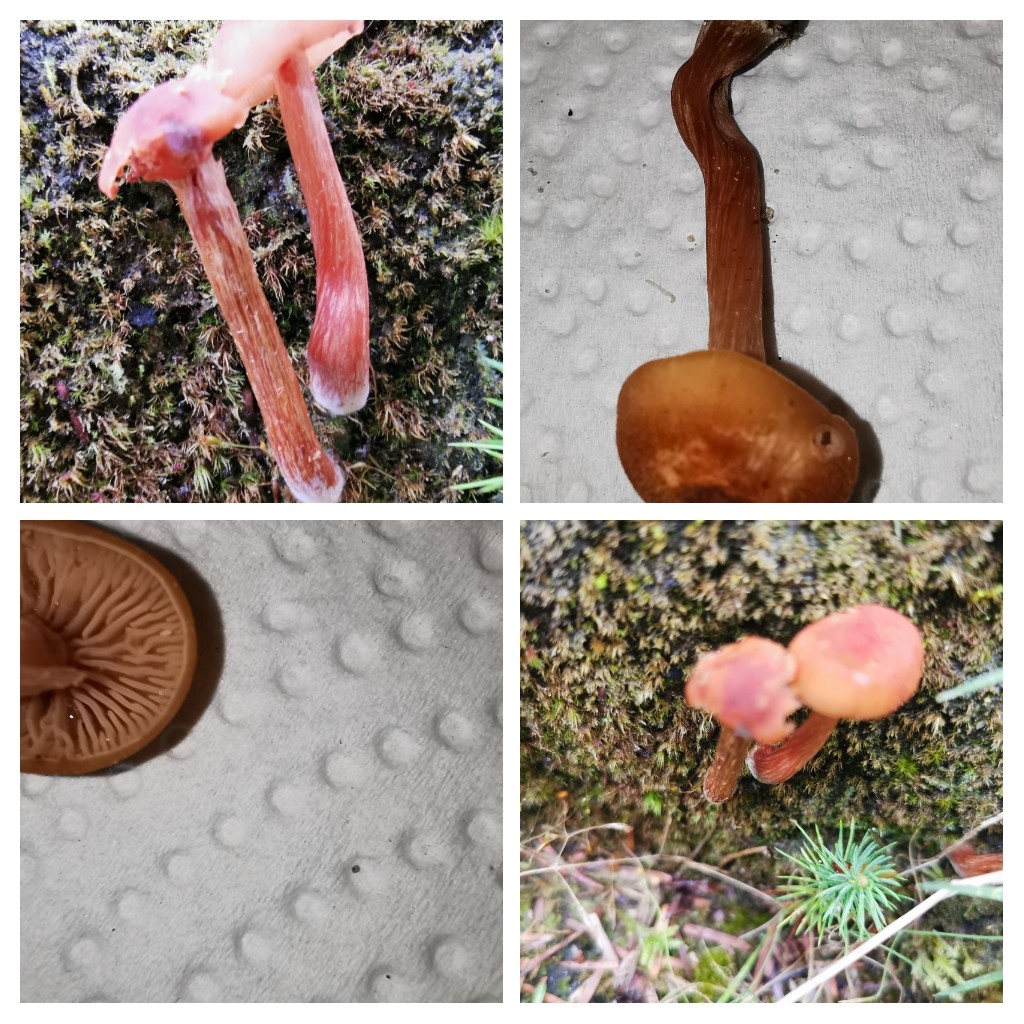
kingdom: Fungi
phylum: Basidiomycota
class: Agaricomycetes
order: Agaricales
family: Hydnangiaceae
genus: Laccaria
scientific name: Laccaria
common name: ametysthat
